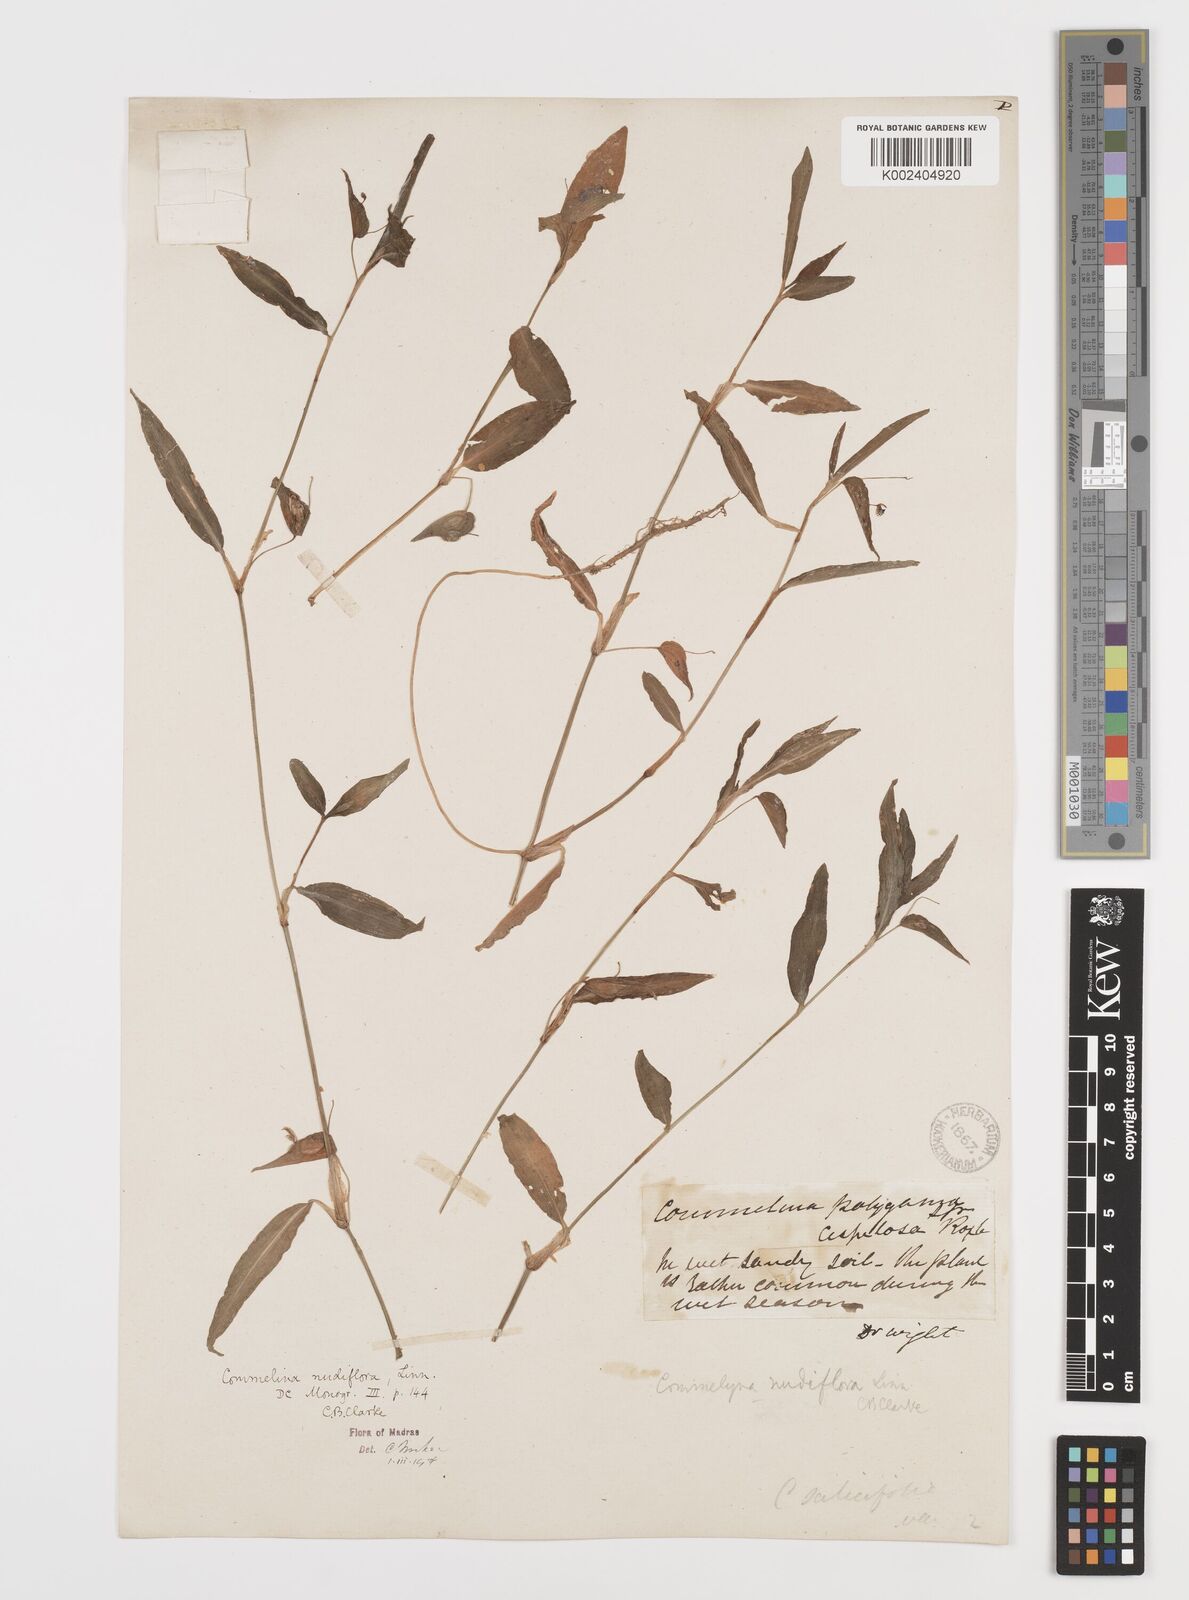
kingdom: Plantae
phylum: Tracheophyta
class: Liliopsida
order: Commelinales
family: Commelinaceae
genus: Commelina
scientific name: Commelina diffusa
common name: Climbing dayflower
